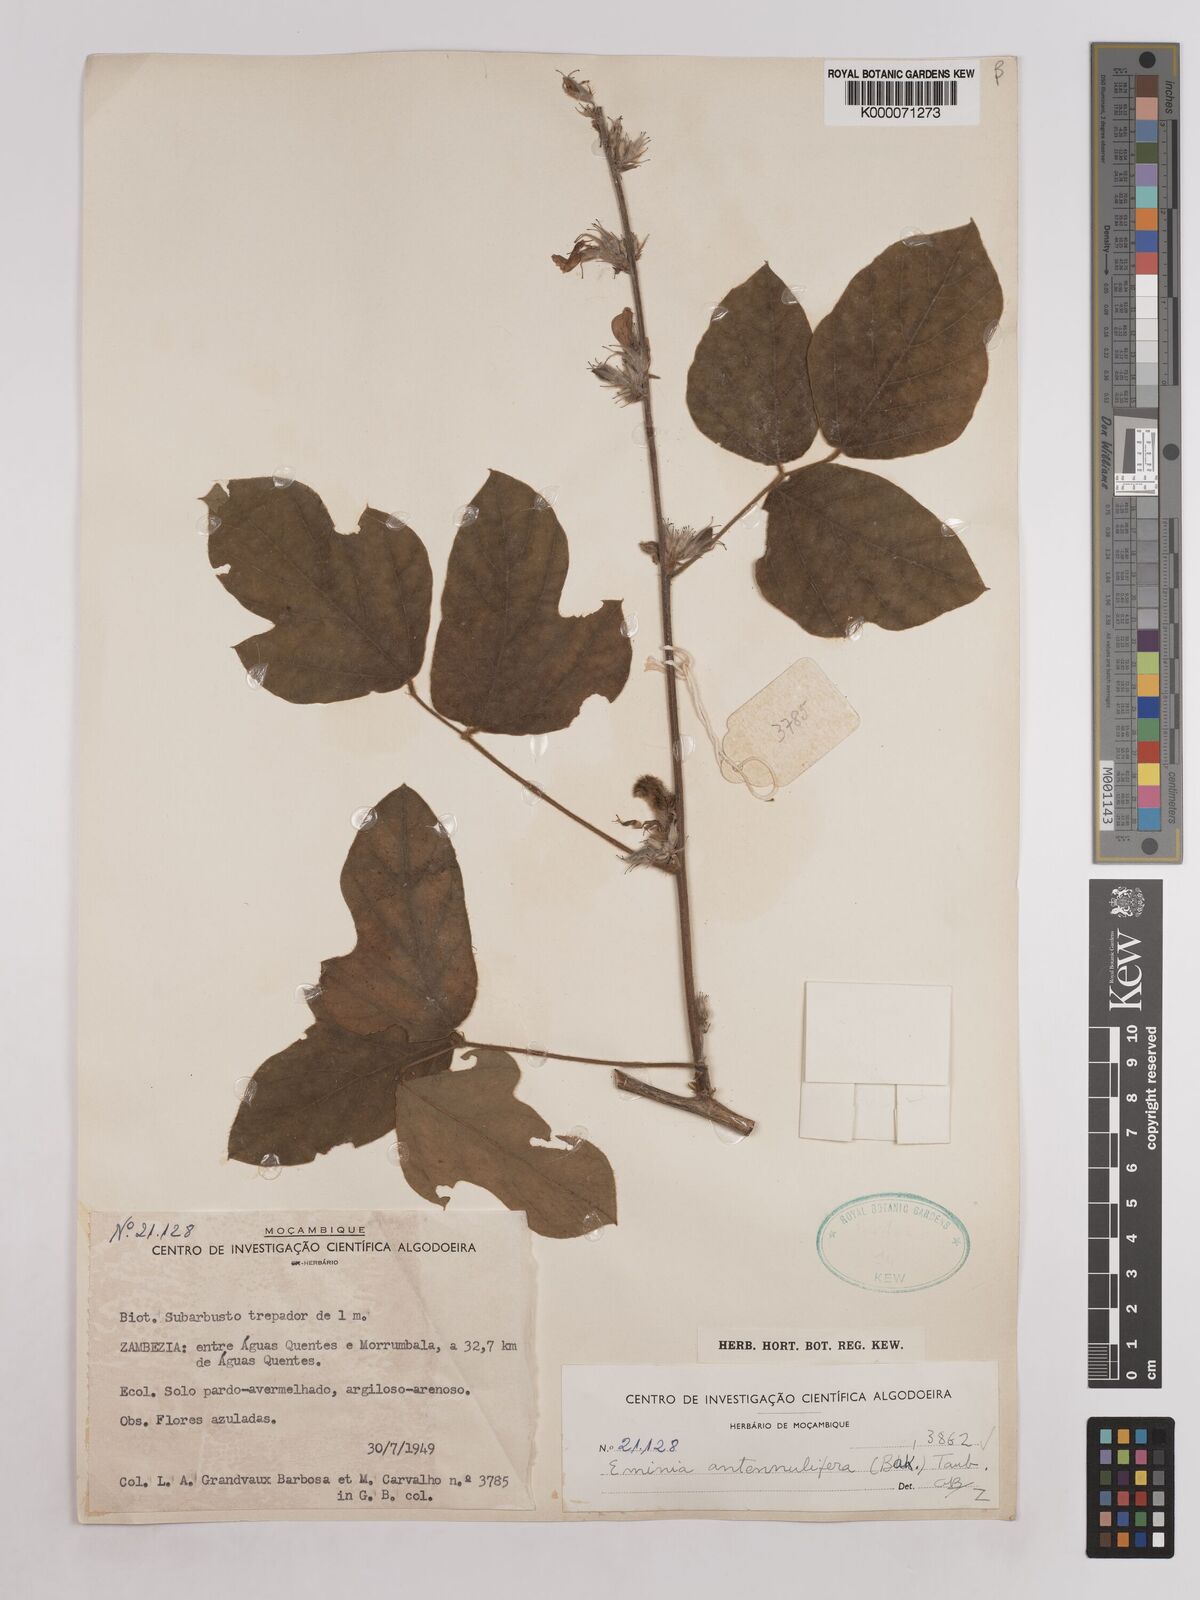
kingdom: Plantae
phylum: Tracheophyta
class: Magnoliopsida
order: Fabales
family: Fabaceae
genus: Eminia
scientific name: Eminia antennulifera
